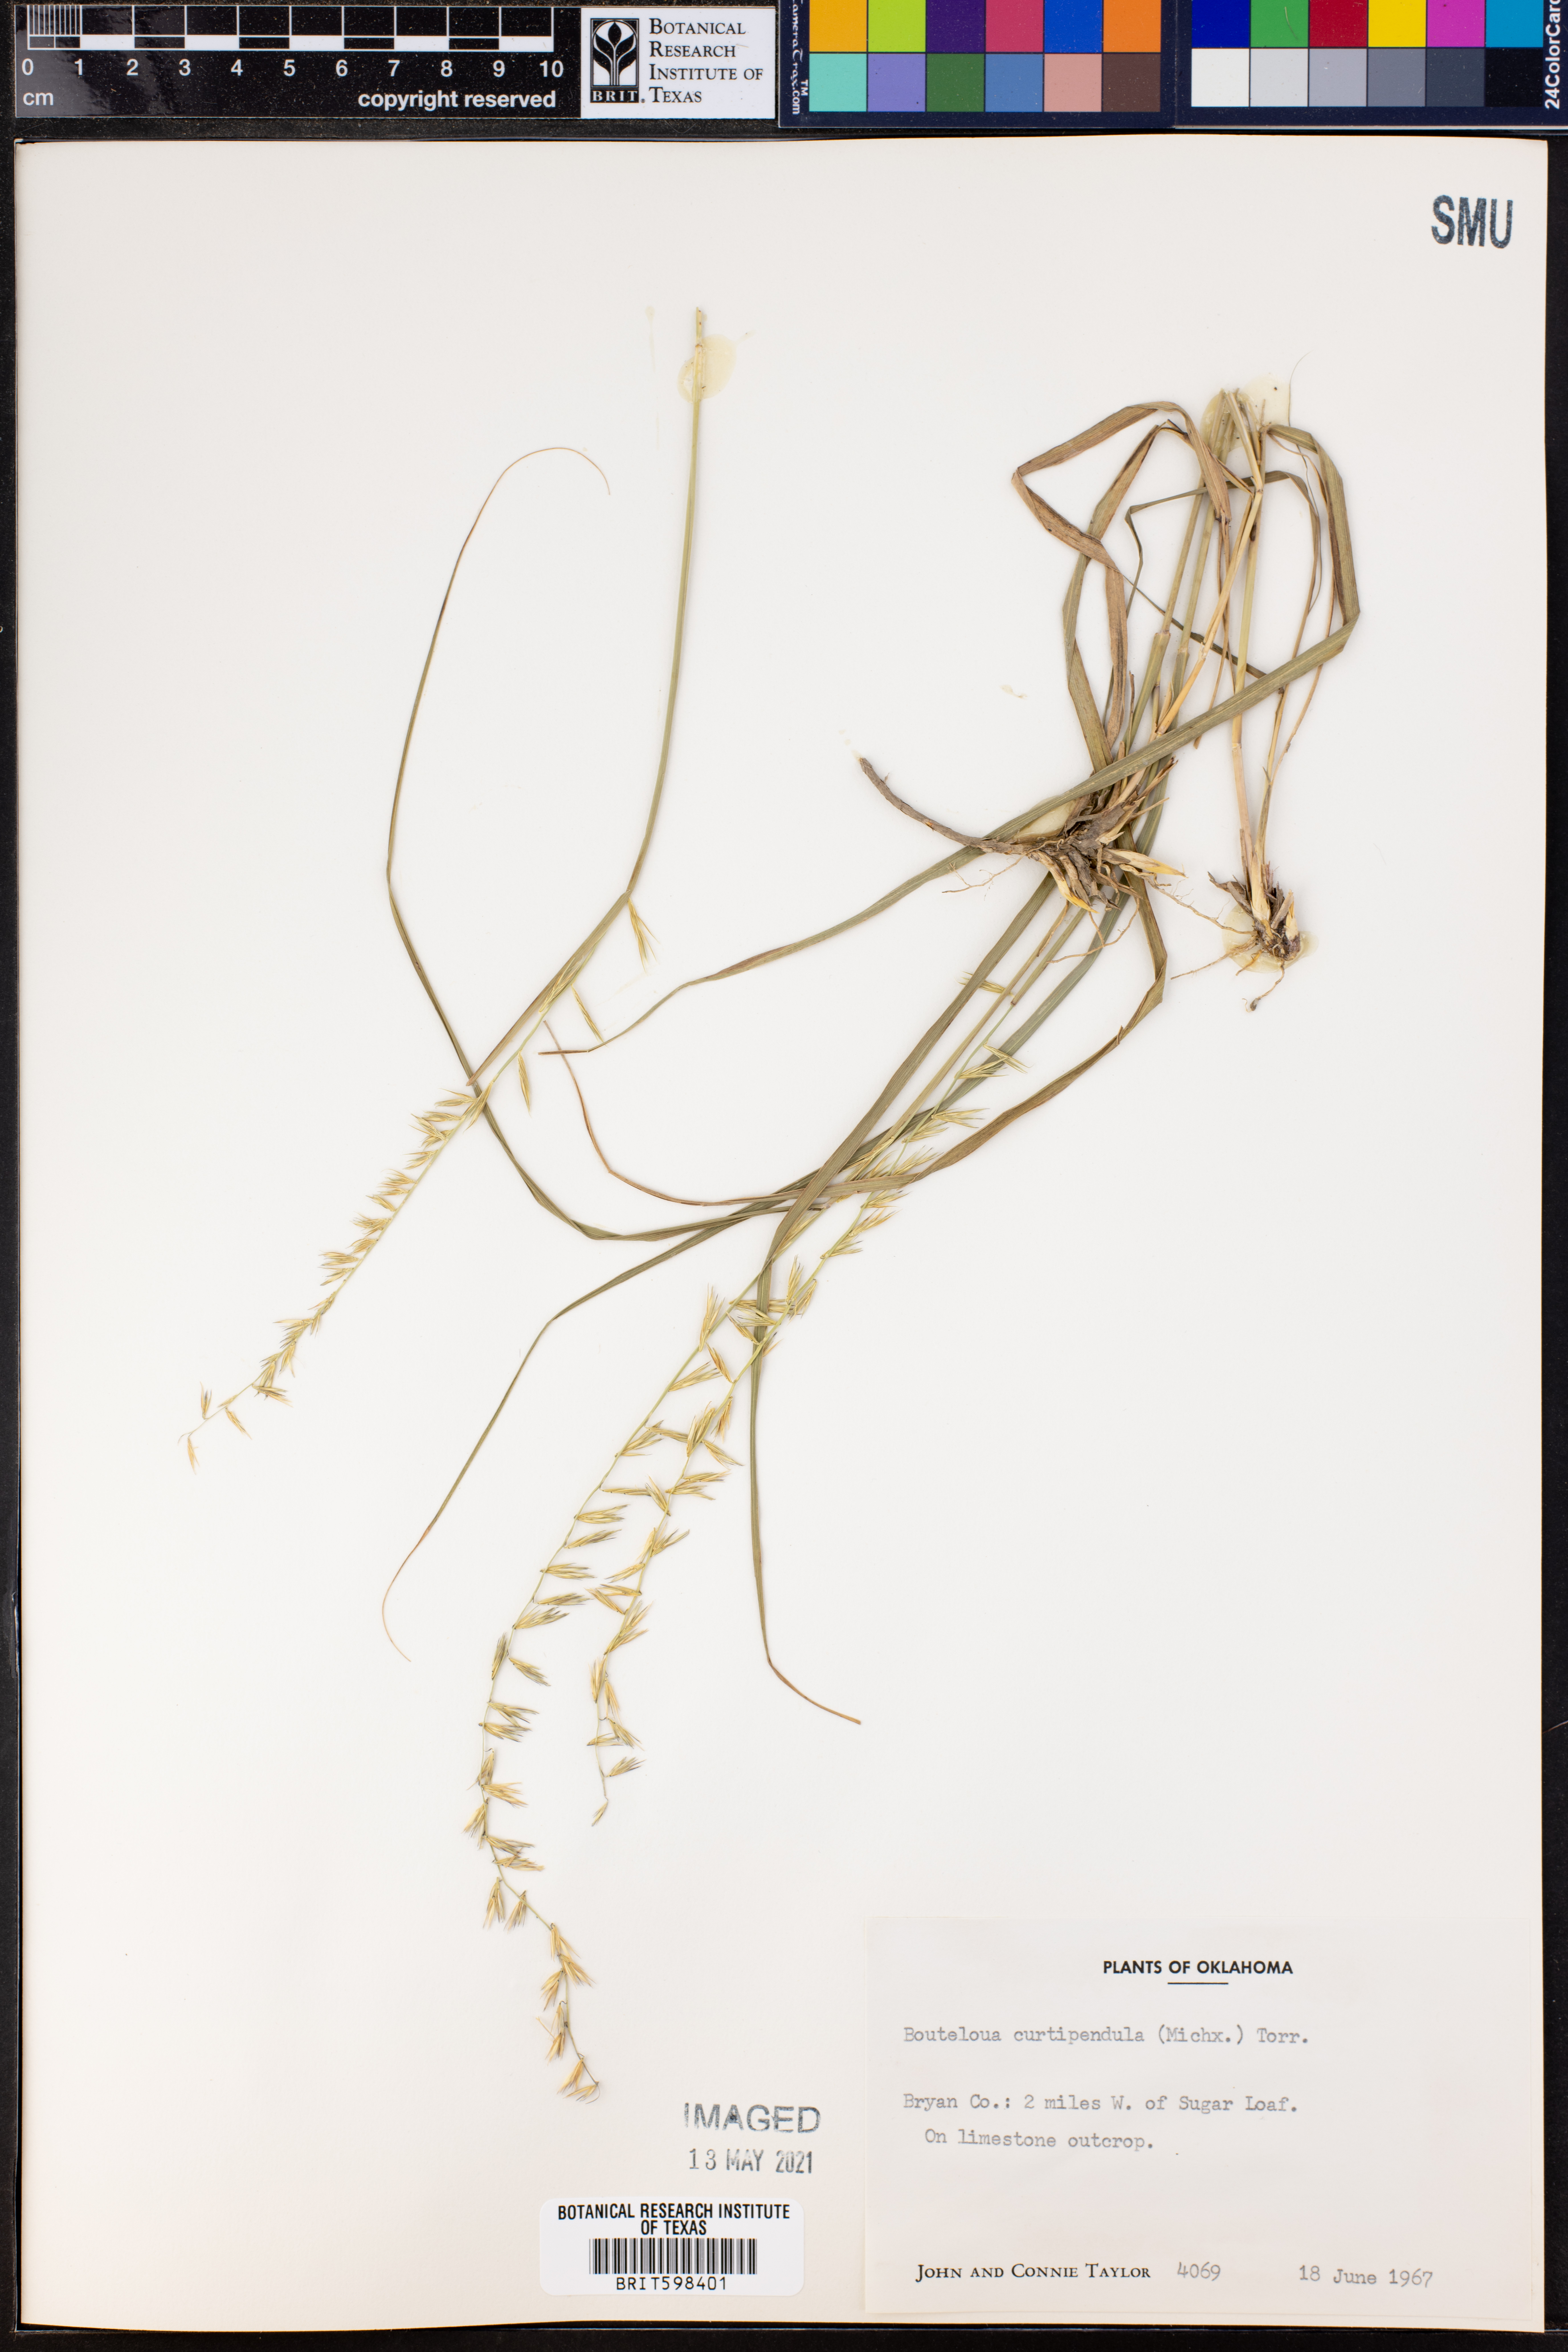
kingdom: Plantae
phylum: Tracheophyta
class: Liliopsida
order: Poales
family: Poaceae
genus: Bouteloua
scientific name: Bouteloua curtipendula
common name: Side-oats grama
